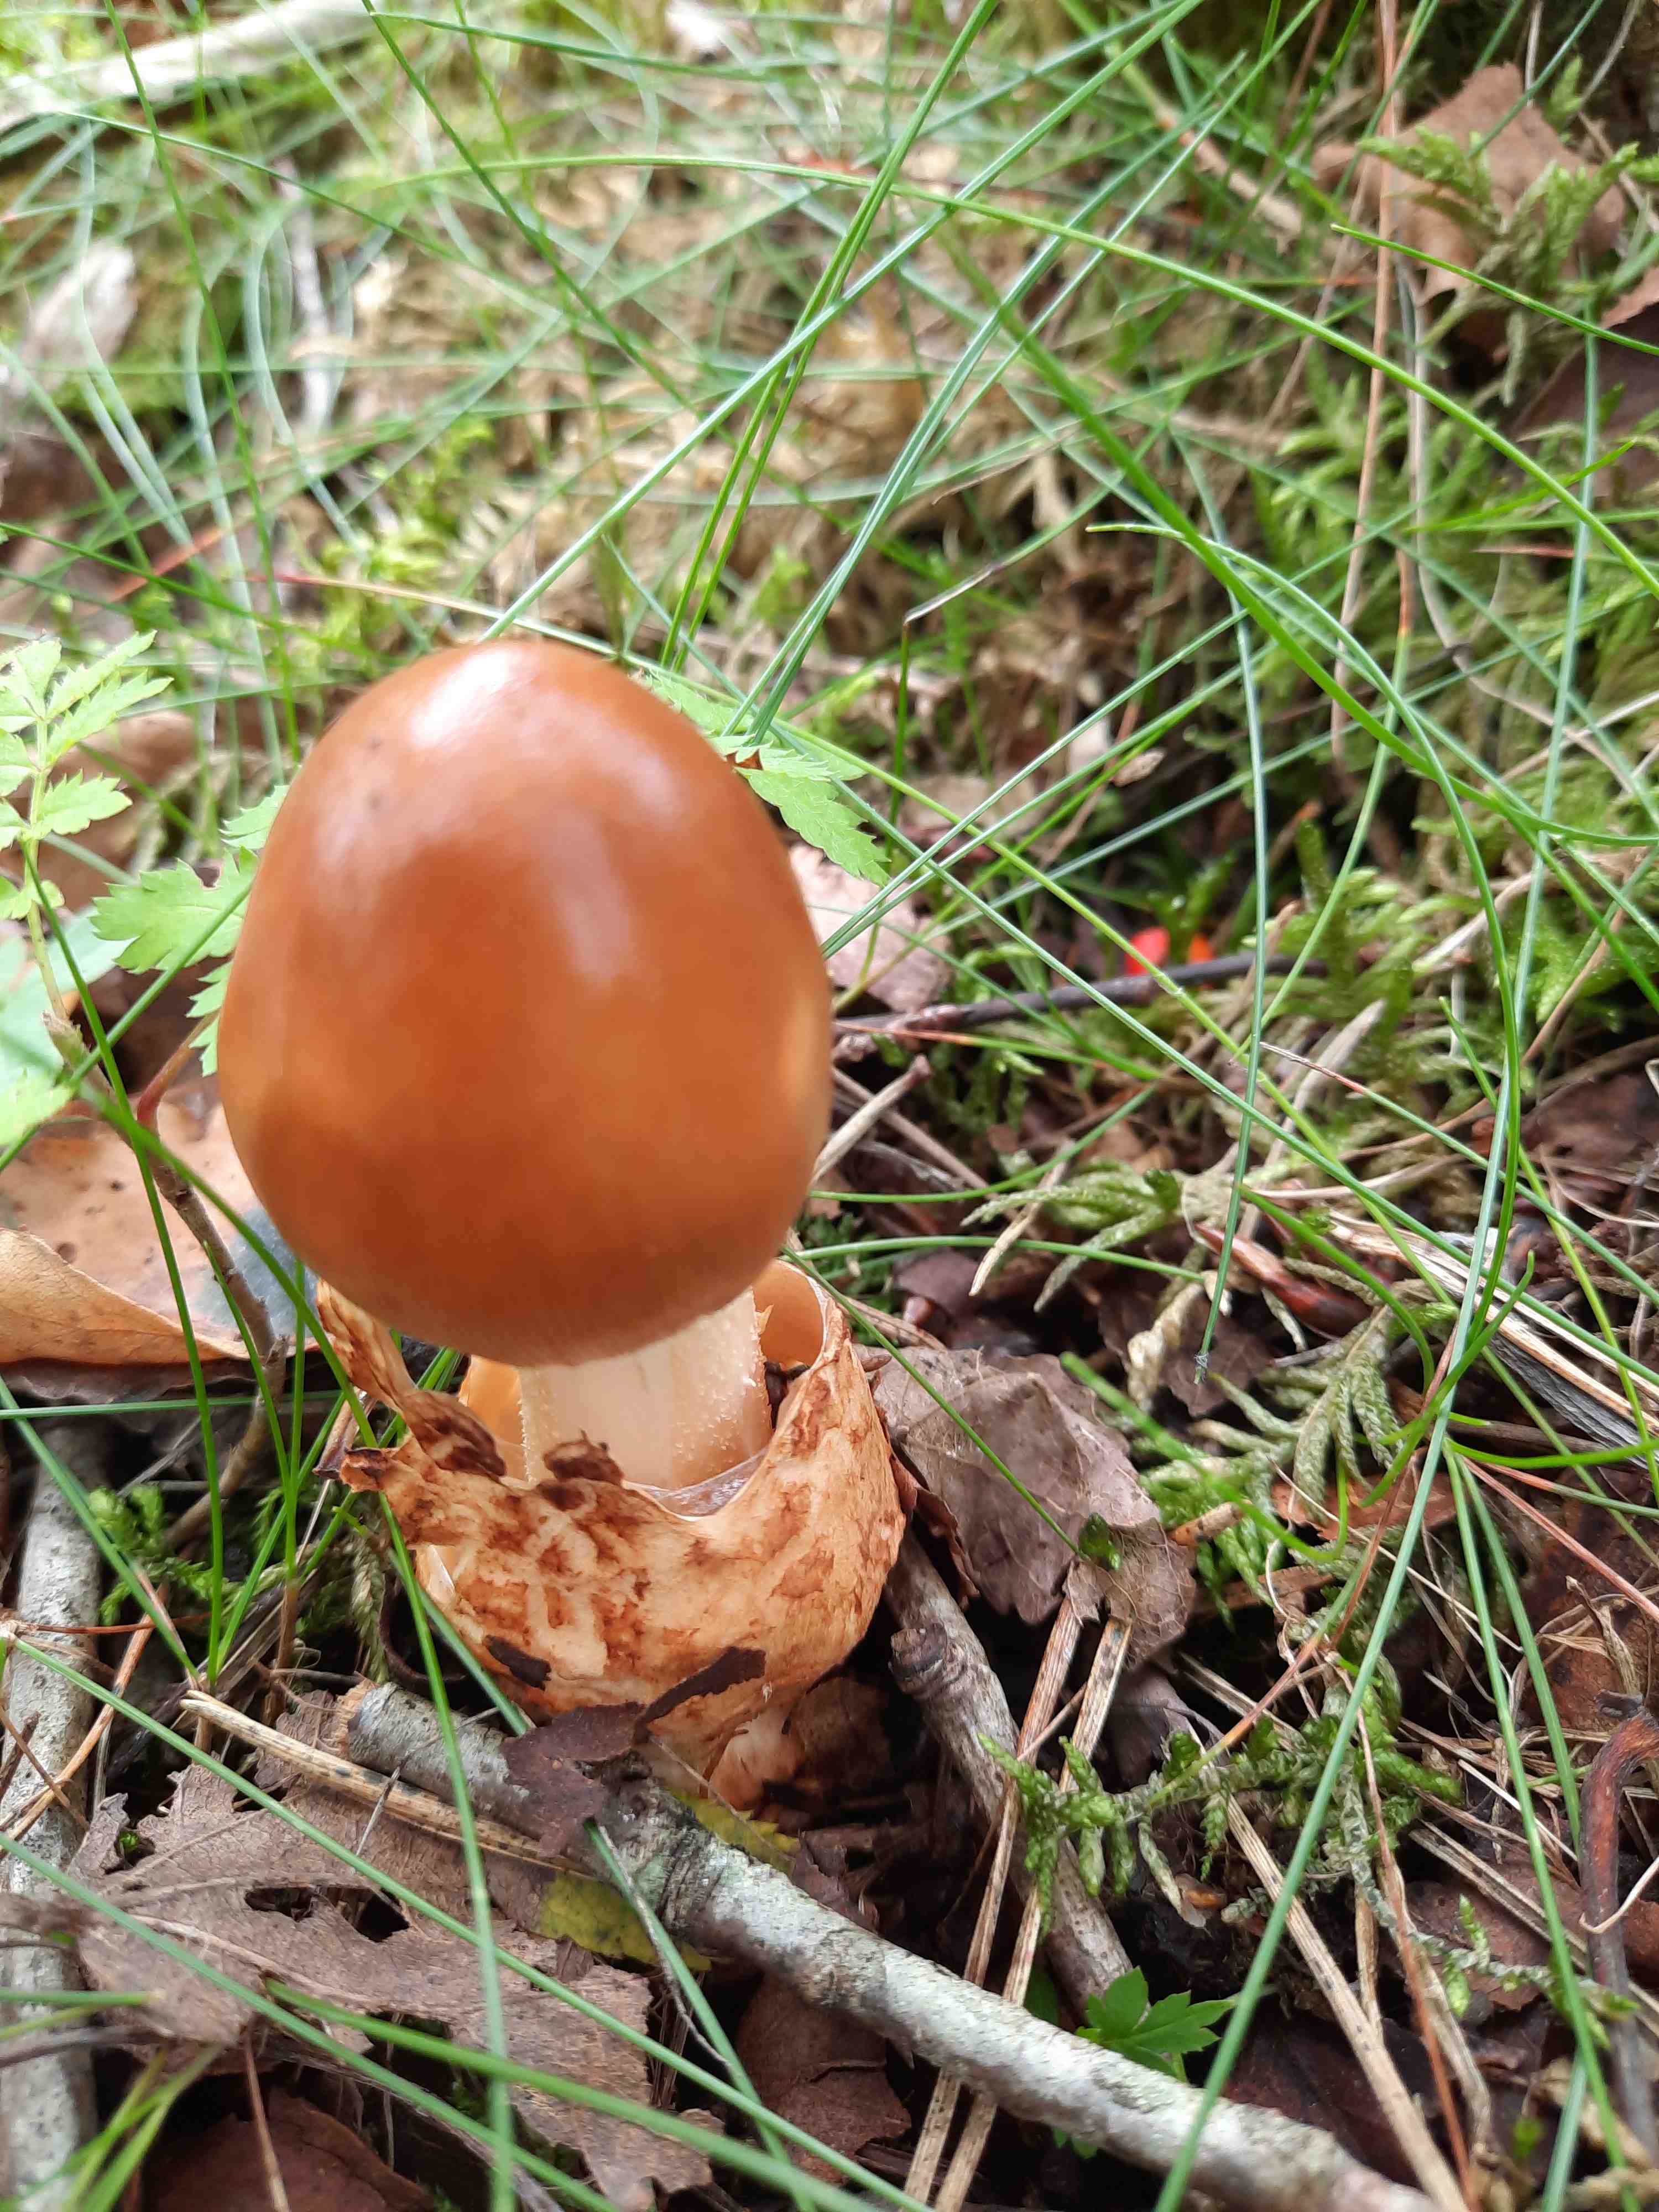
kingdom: Fungi
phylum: Basidiomycota
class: Agaricomycetes
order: Agaricales
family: Amanitaceae
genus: Amanita
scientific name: Amanita fulva
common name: brun kam-fluesvamp
